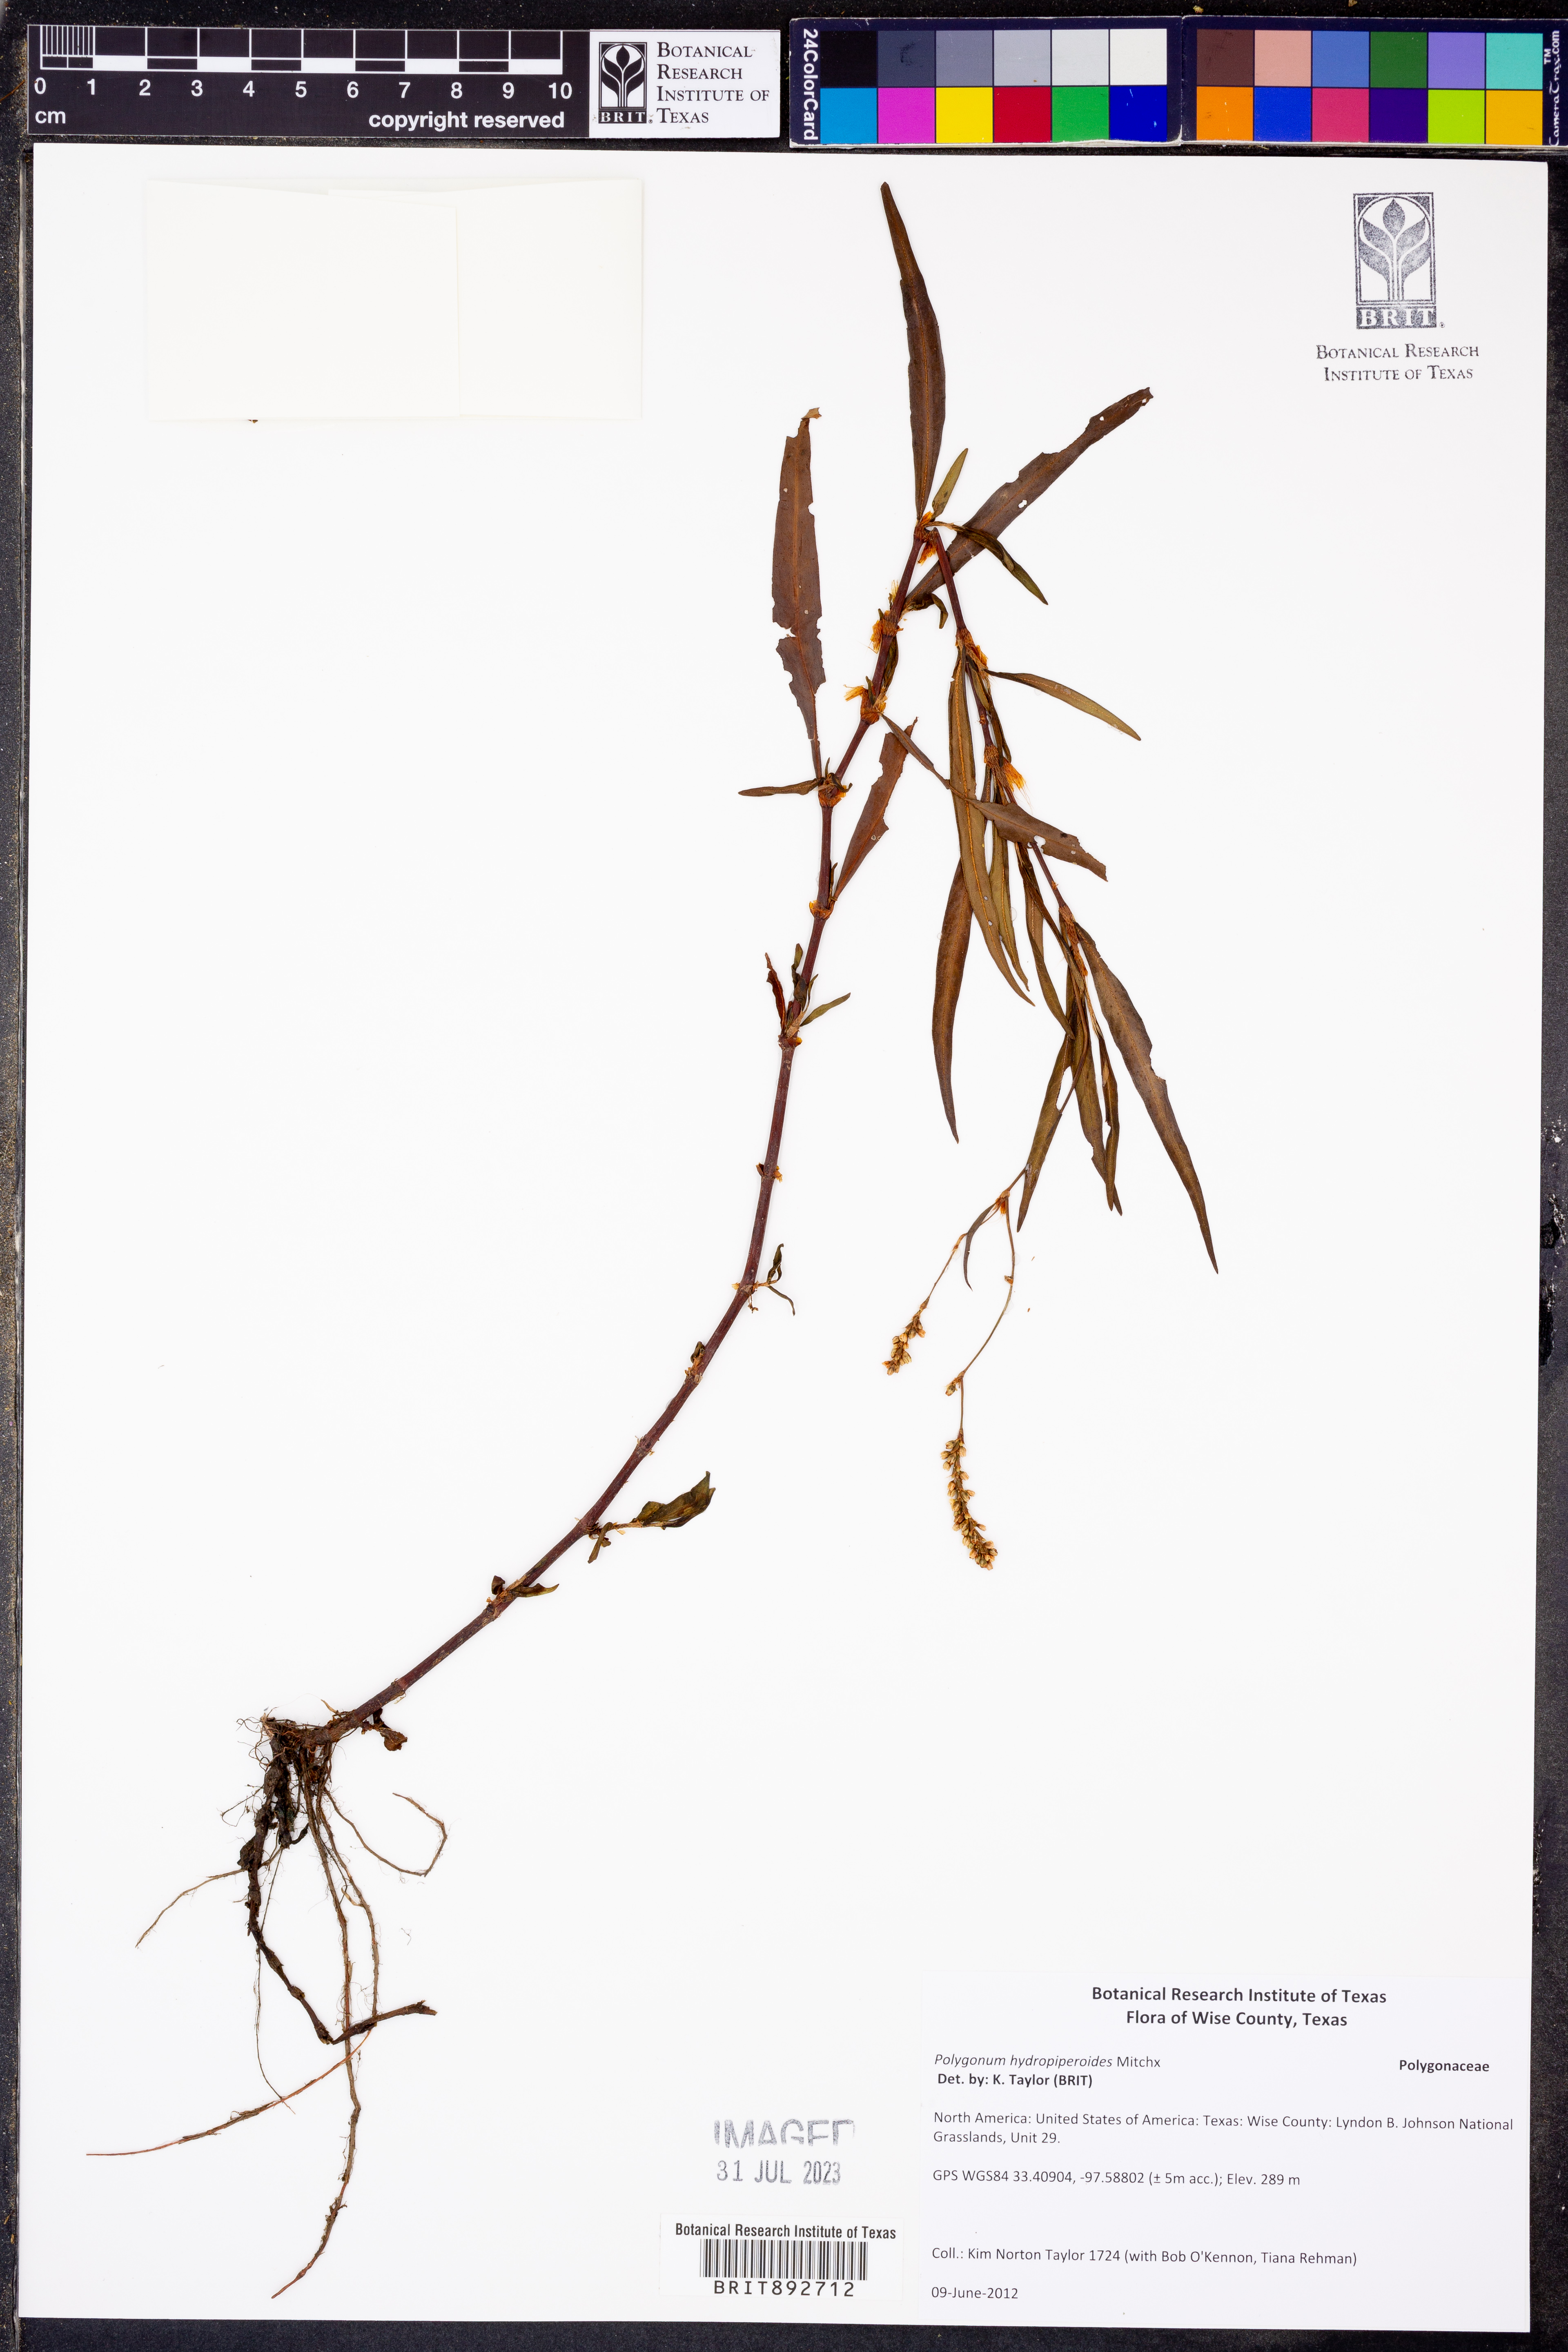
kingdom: Plantae
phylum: Tracheophyta
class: Magnoliopsida
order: Caryophyllales
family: Polygonaceae
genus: Persicaria
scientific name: Persicaria hydropiperoides
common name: Swamp smartweed
